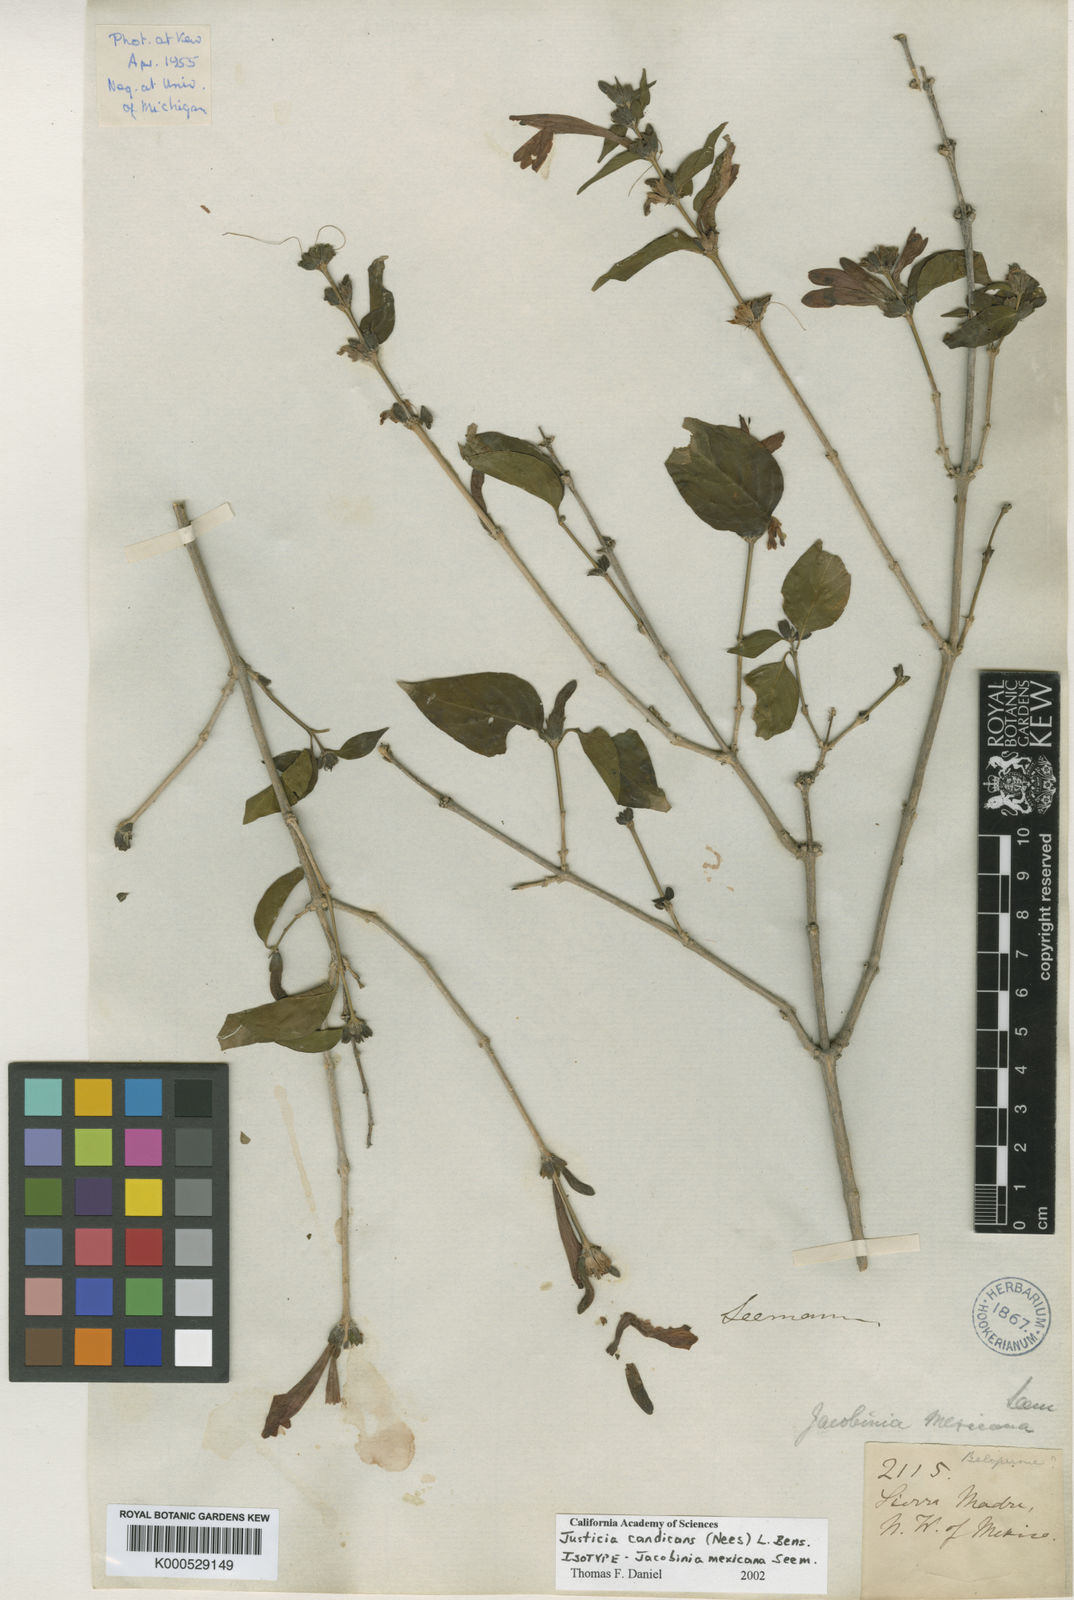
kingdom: Plantae
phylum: Tracheophyta
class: Magnoliopsida
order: Lamiales
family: Acanthaceae
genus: Dianthera
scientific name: Dianthera candicans
